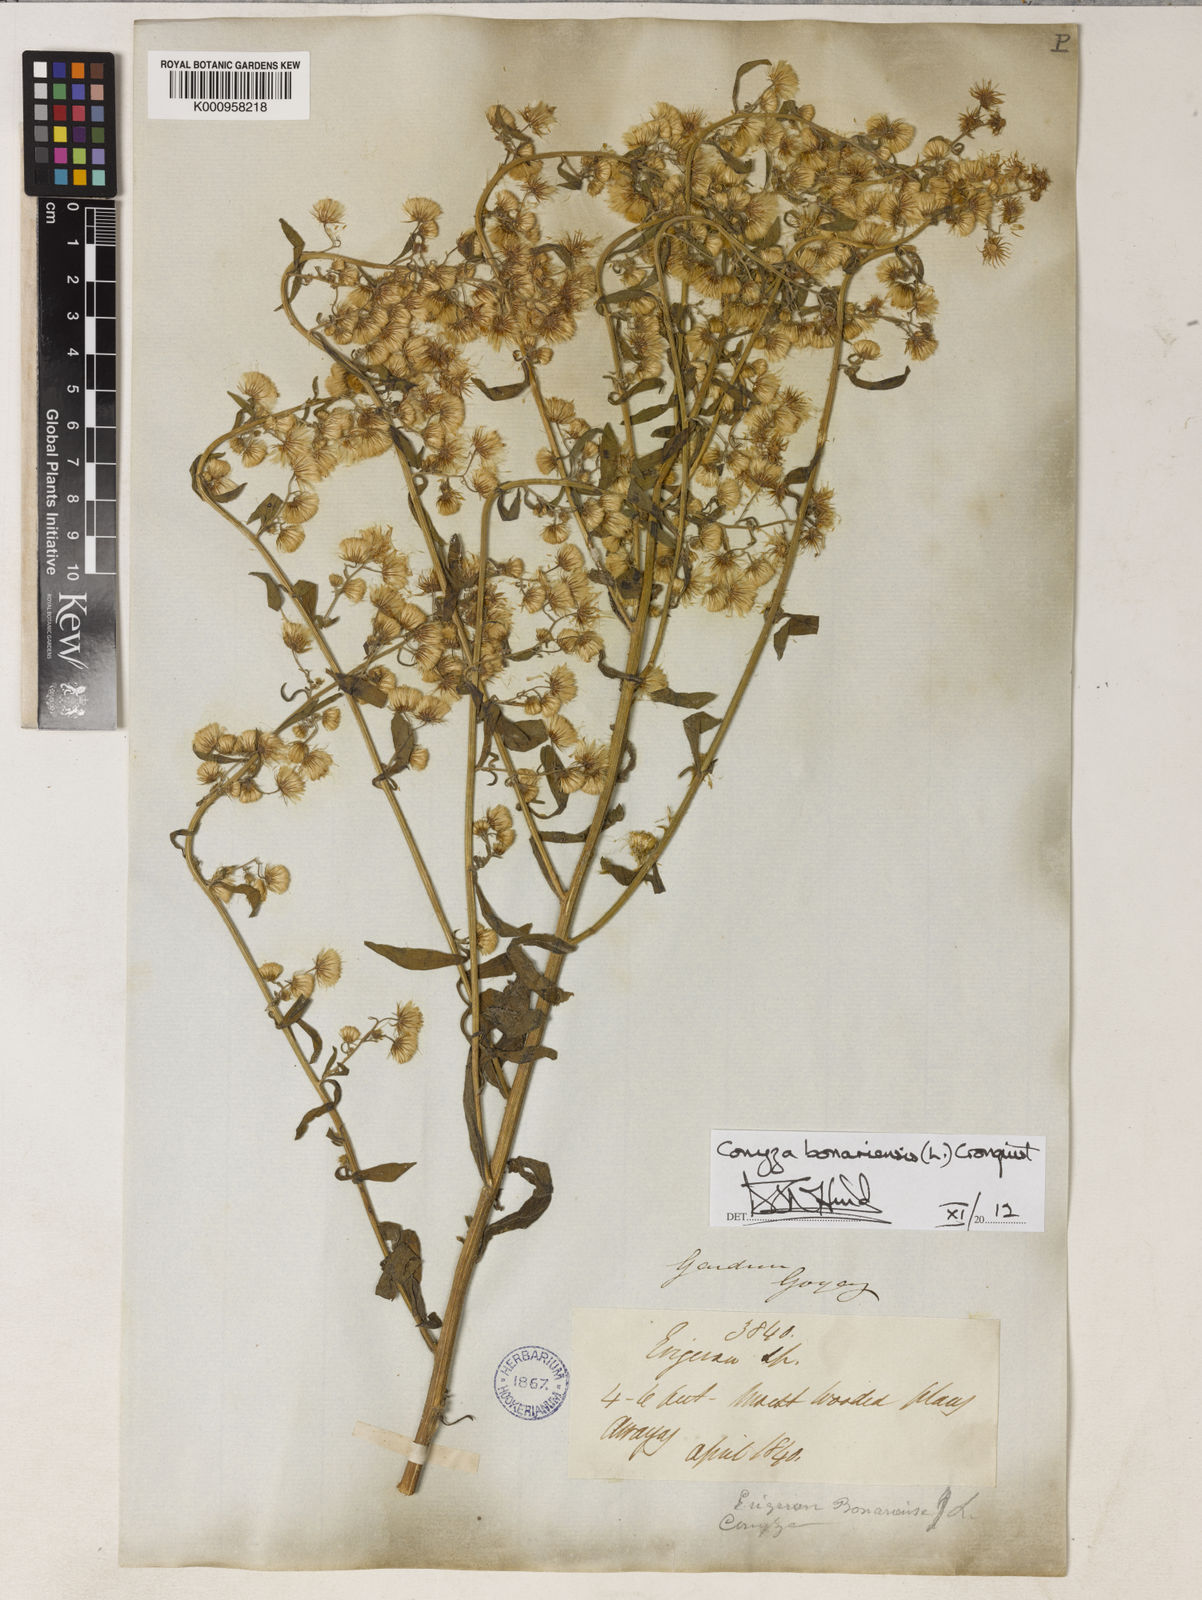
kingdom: Plantae
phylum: Tracheophyta
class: Magnoliopsida
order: Asterales
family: Asteraceae
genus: Erigeron
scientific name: Erigeron bonariensis
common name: Argentine fleabane
